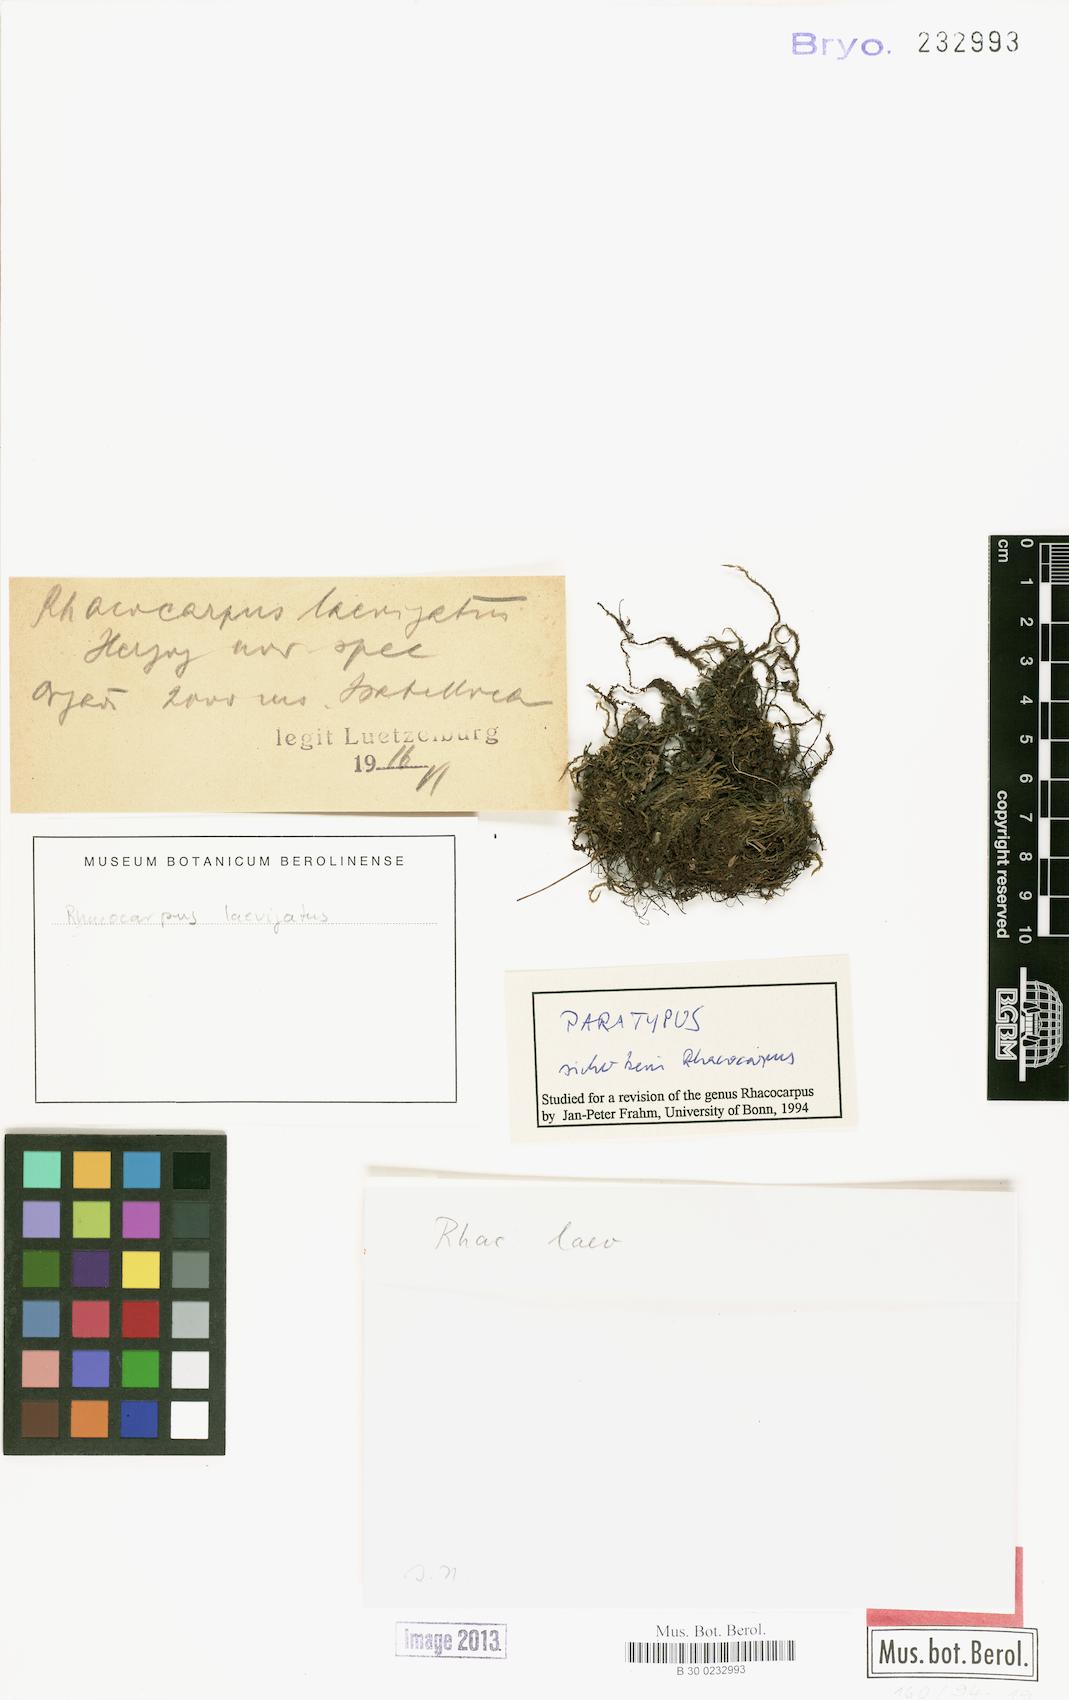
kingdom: Plantae
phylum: Bryophyta
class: Bryopsida
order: Hypnales
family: Sematophyllaceae
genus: Kuerschneria
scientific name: Kuerschneria laevigata
